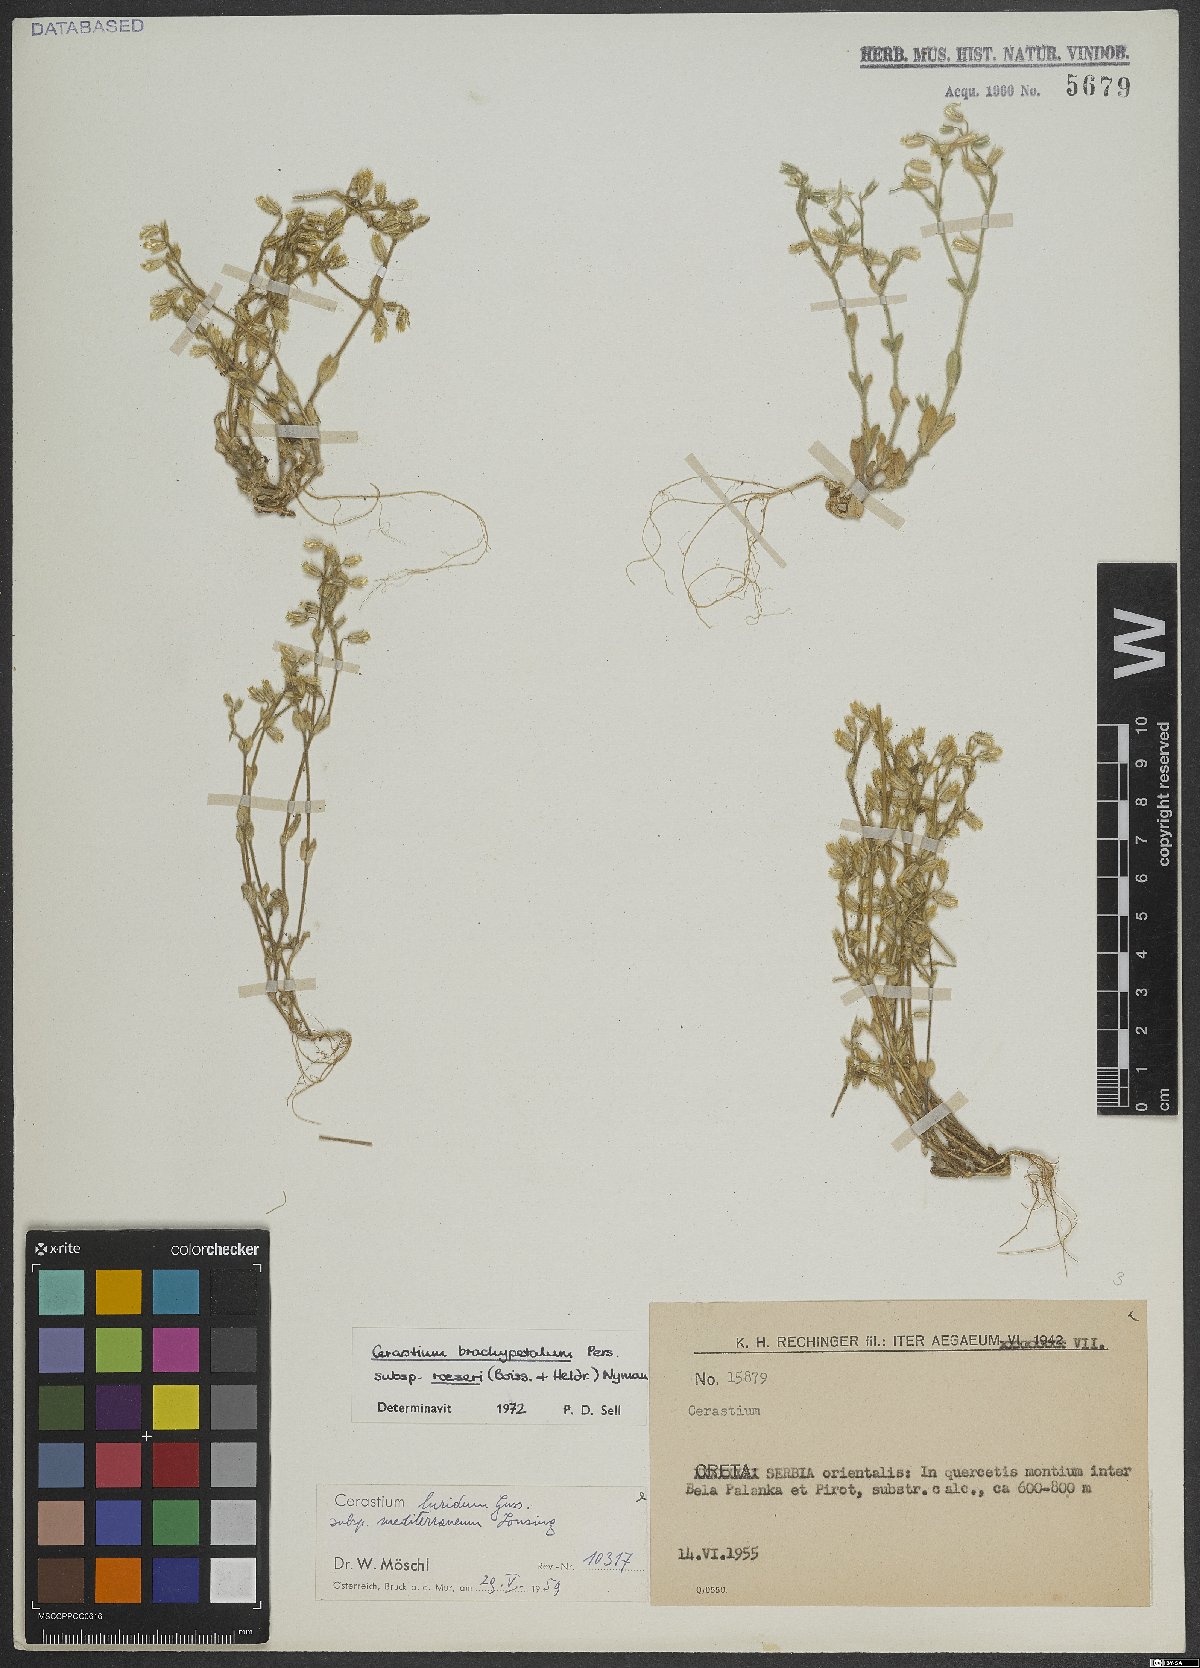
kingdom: Plantae
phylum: Tracheophyta
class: Magnoliopsida
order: Caryophyllales
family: Caryophyllaceae
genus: Cerastium
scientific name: Cerastium brachypetalum
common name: Grey mouse-ear
